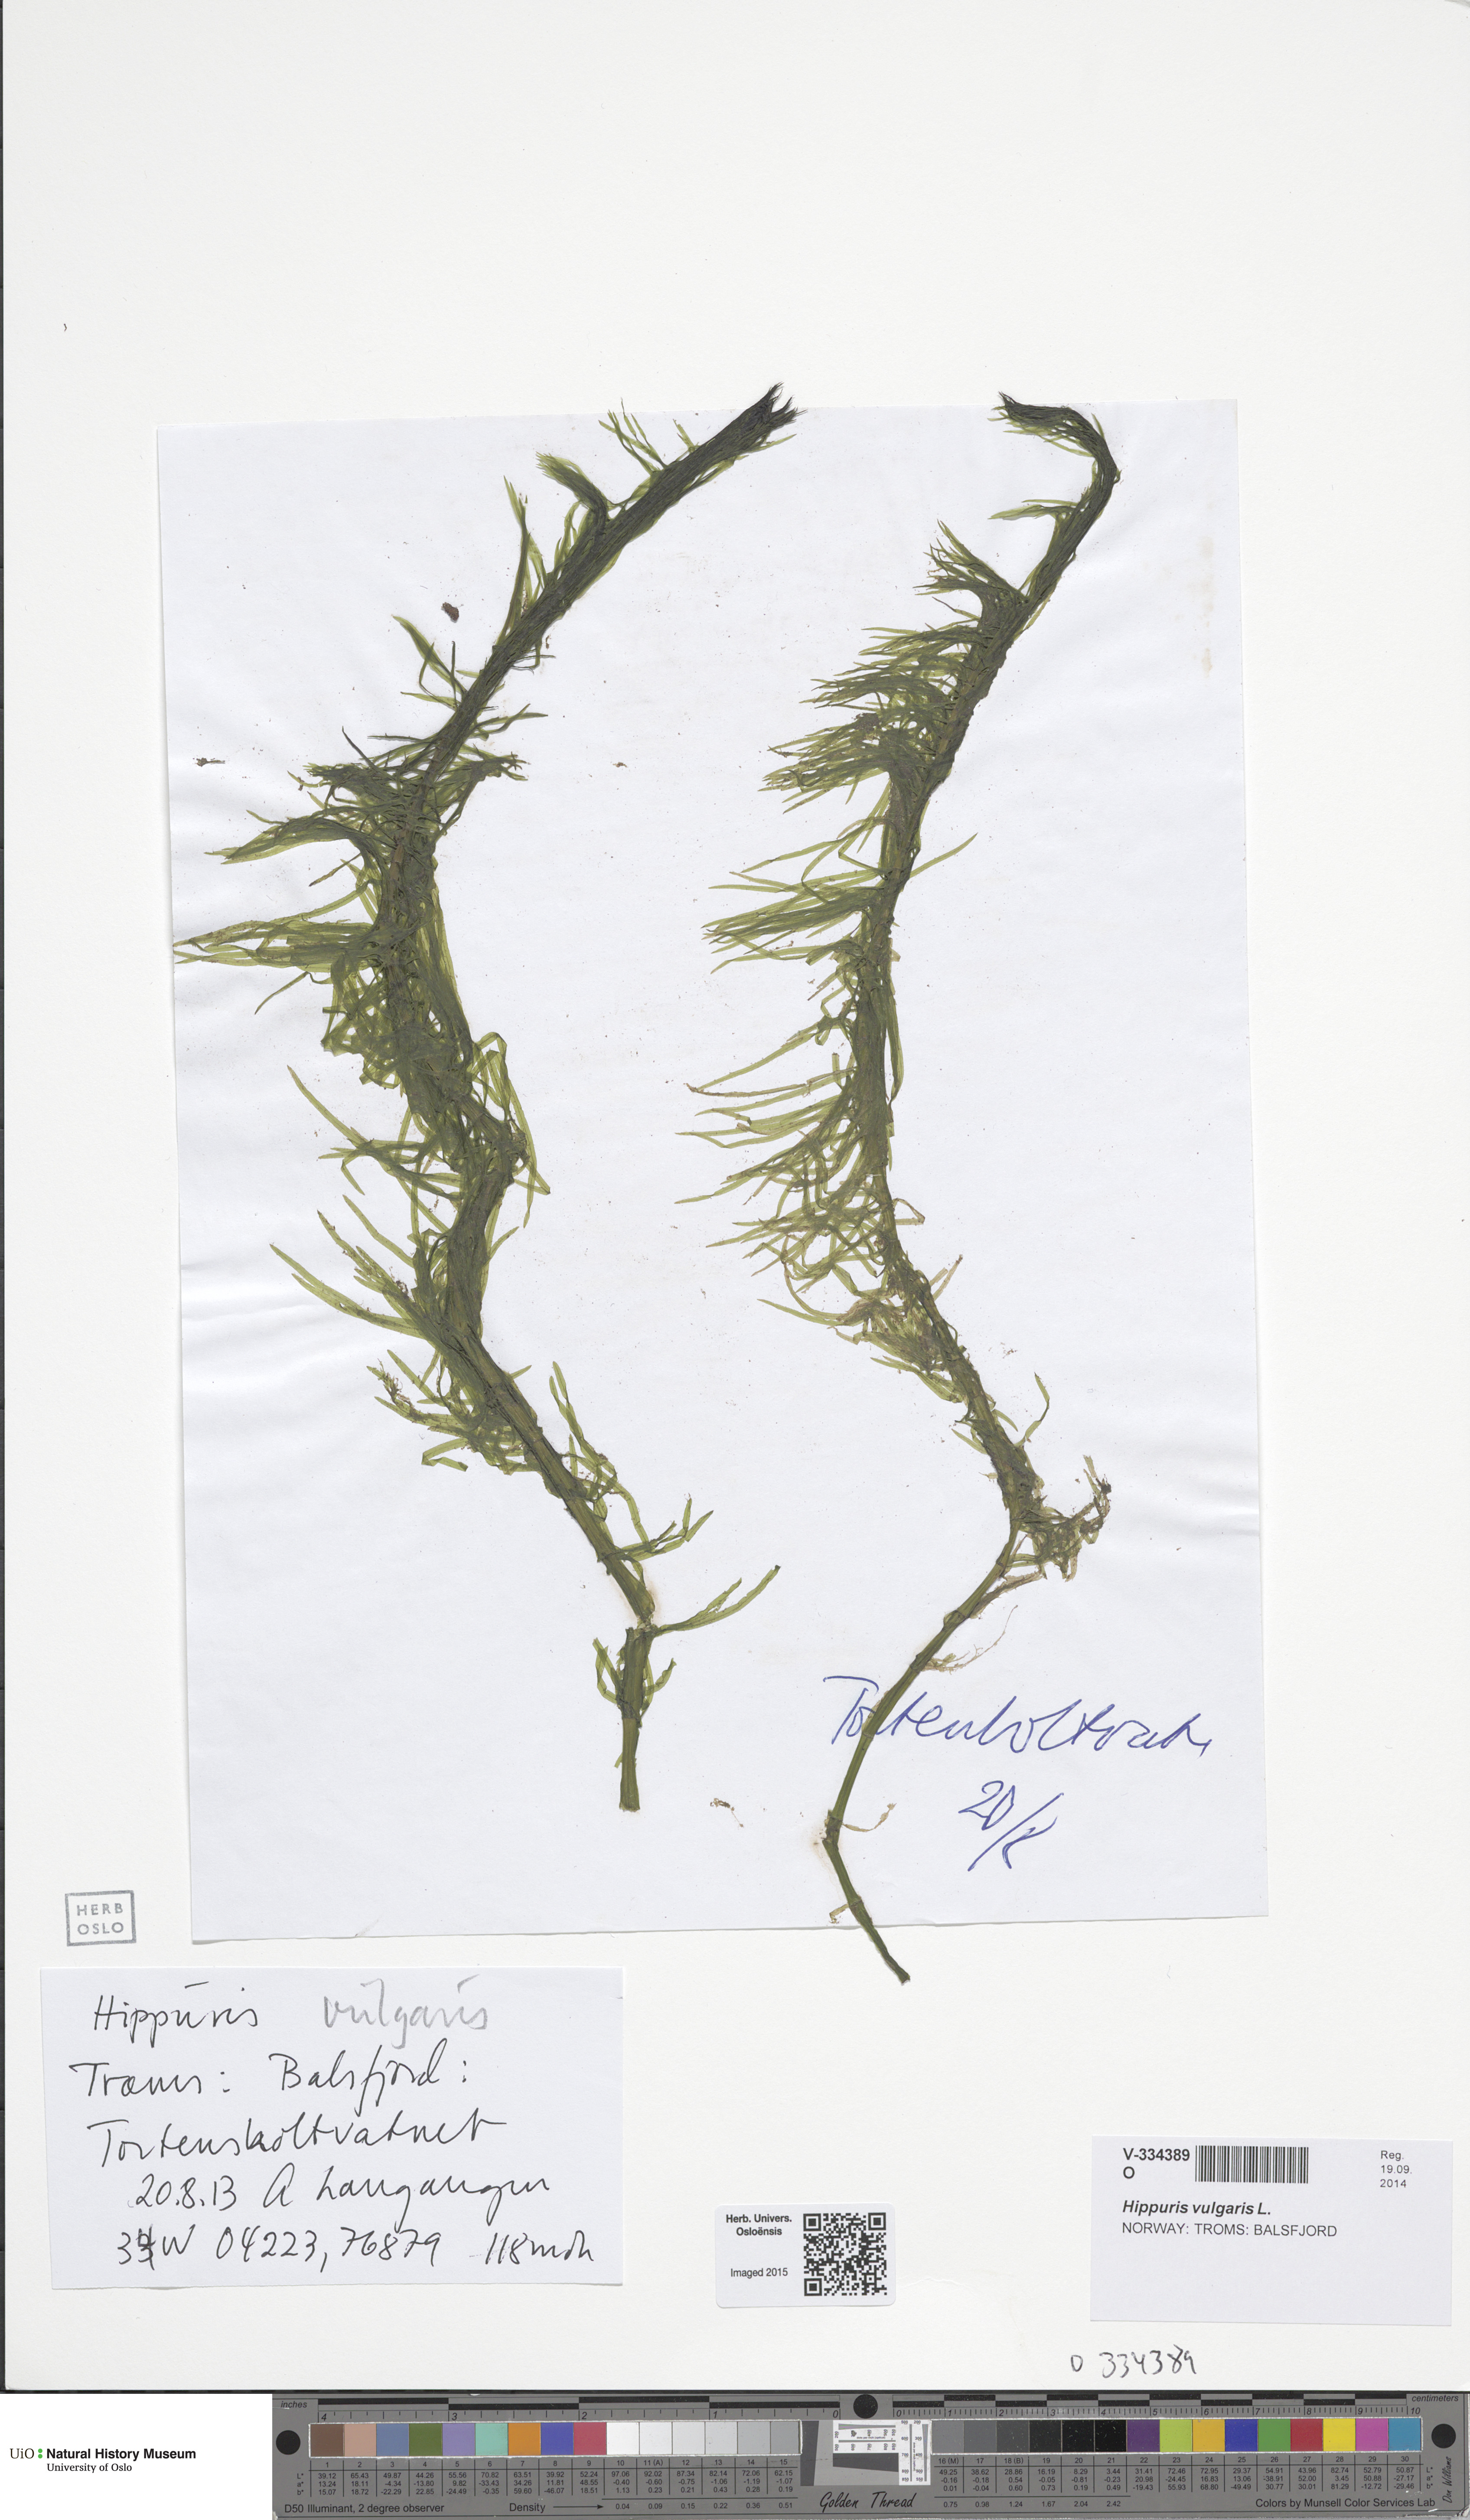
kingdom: Plantae
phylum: Tracheophyta
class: Magnoliopsida
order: Lamiales
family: Plantaginaceae
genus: Hippuris
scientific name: Hippuris vulgaris
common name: Mare's-tail
